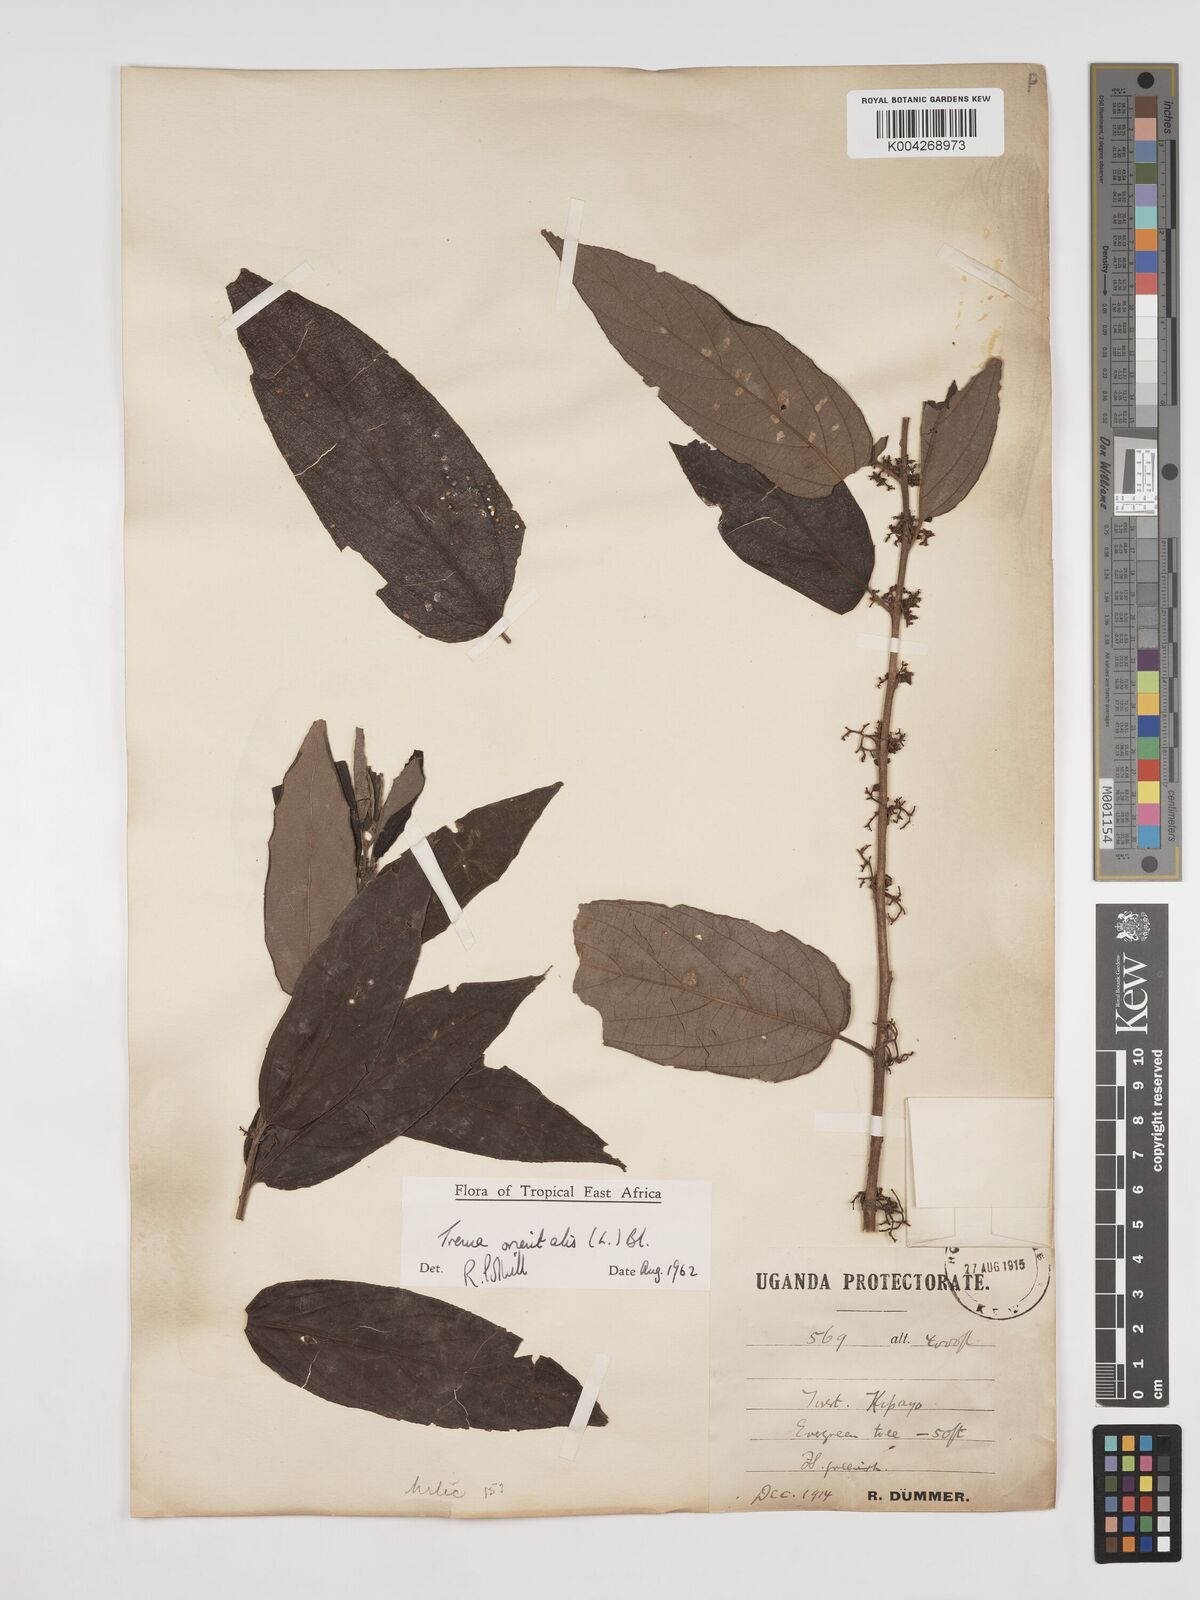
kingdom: Plantae
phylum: Tracheophyta
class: Magnoliopsida
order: Rosales
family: Cannabaceae
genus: Trema
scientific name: Trema orientale
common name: Indian charcoal tree
